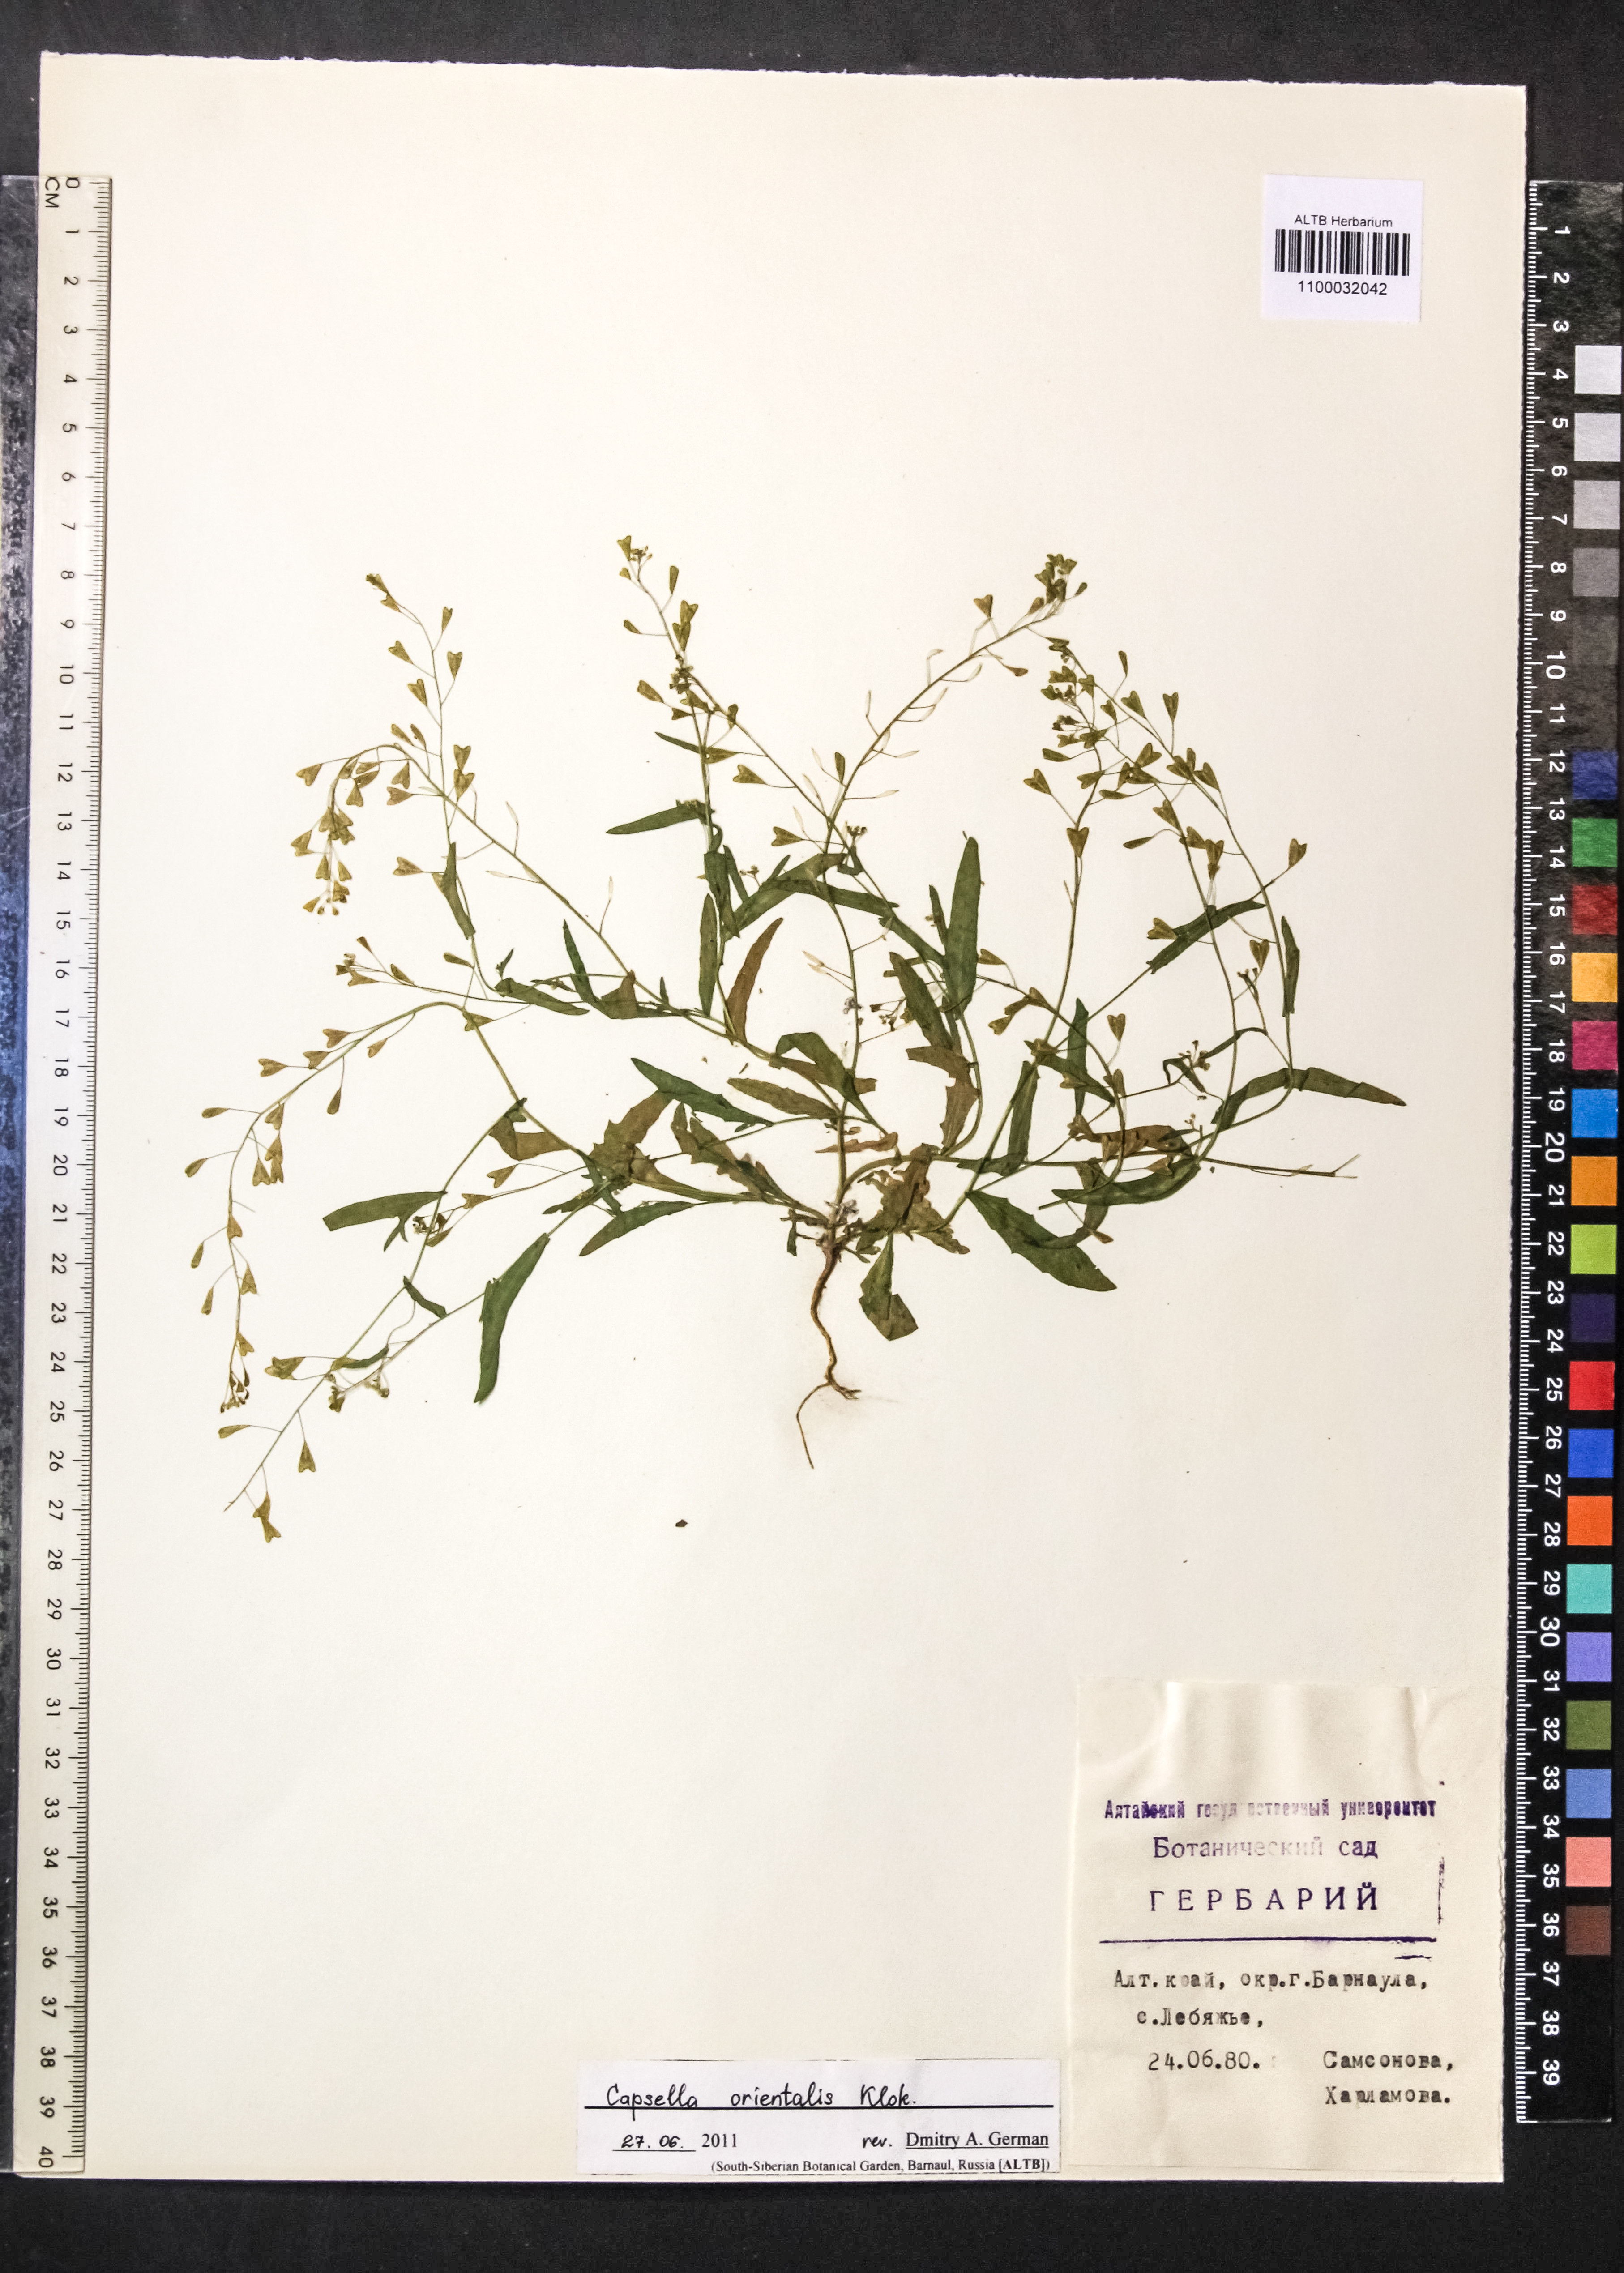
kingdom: Plantae
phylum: Tracheophyta
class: Magnoliopsida
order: Brassicales
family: Brassicaceae
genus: Capsella
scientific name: Capsella orientalis
